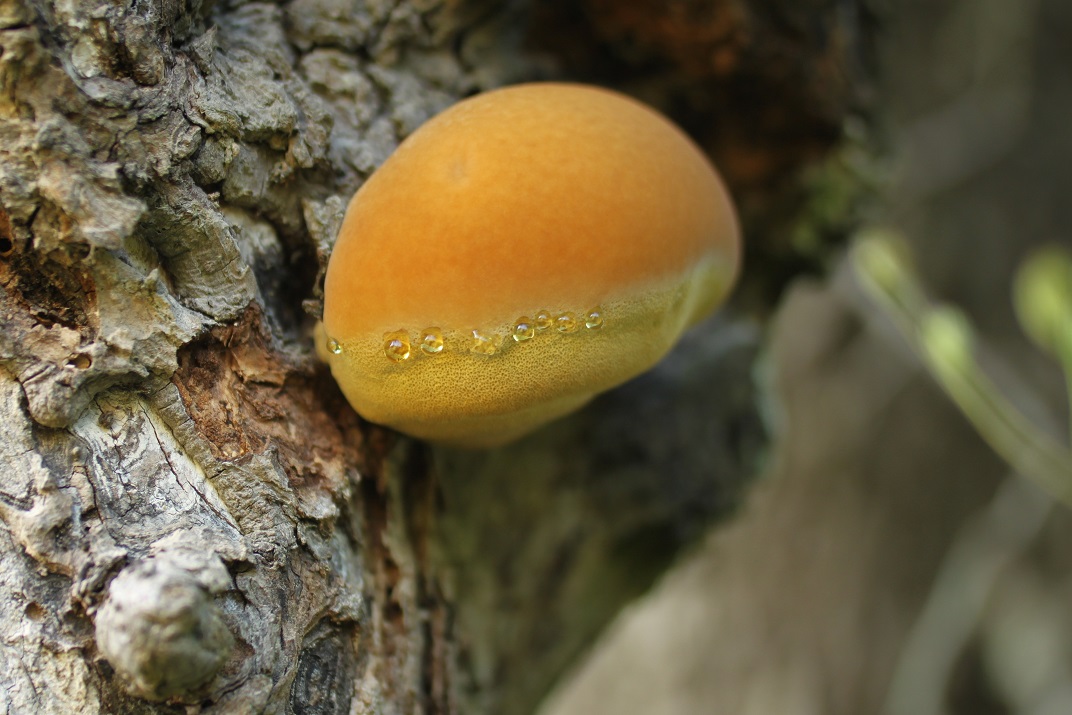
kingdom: Fungi
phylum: Basidiomycota
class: Agaricomycetes
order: Hymenochaetales
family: Hymenochaetaceae
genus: Inonotus
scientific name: Inonotus hispidus
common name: børstehåret spejlporesvamp
